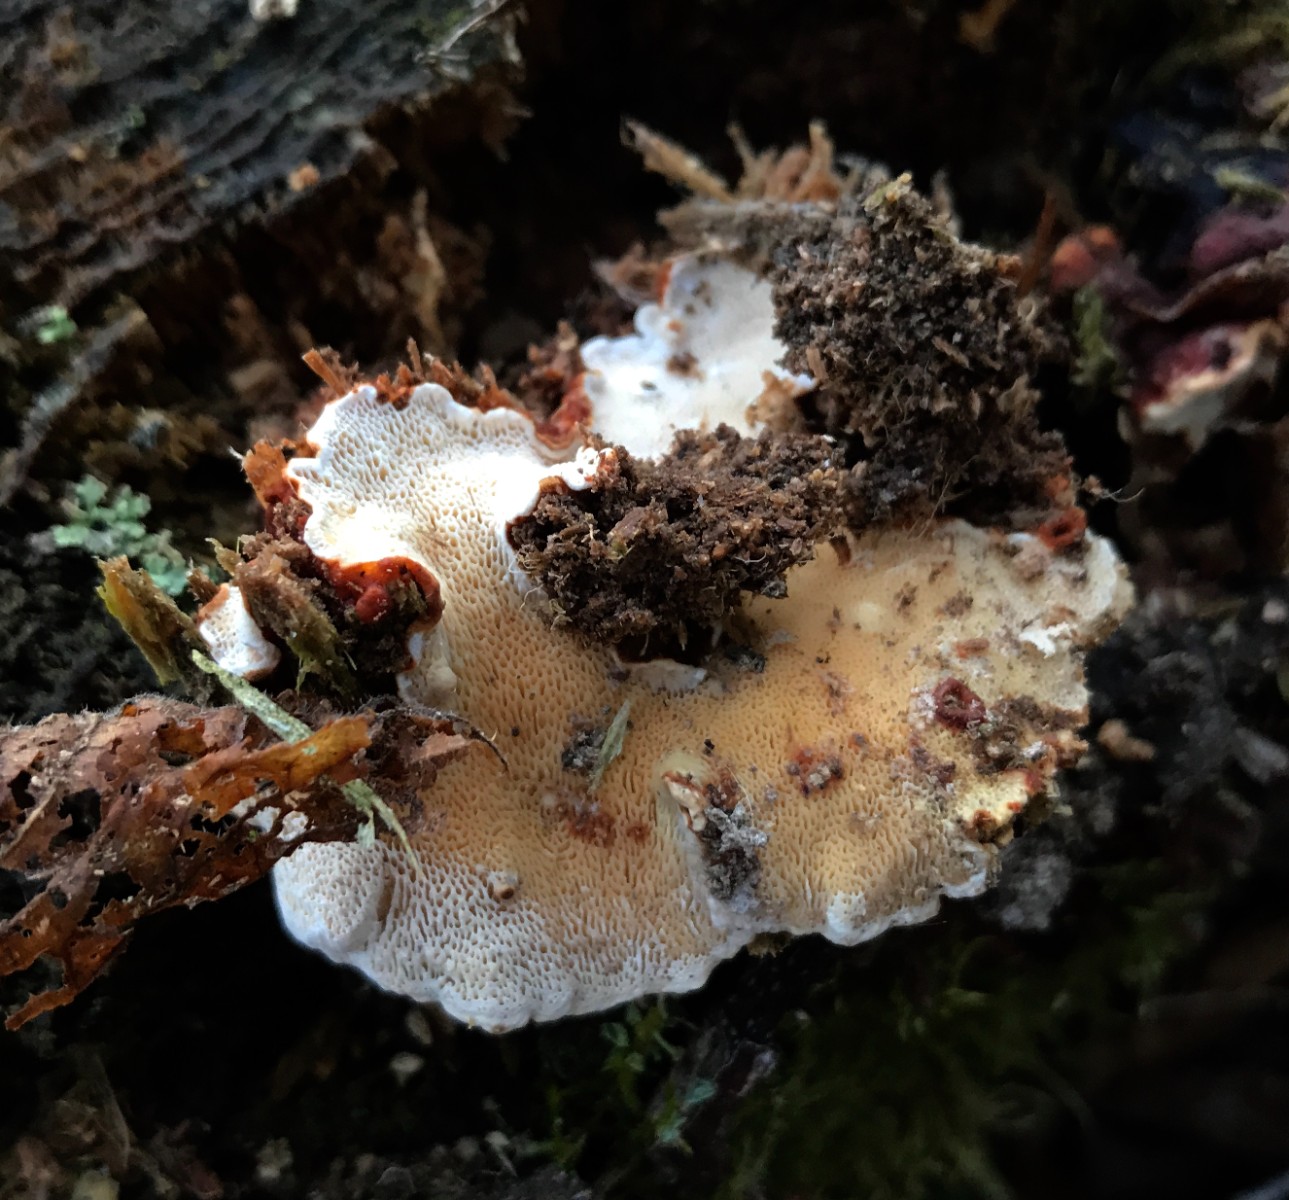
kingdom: Fungi
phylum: Basidiomycota
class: Agaricomycetes
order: Russulales
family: Bondarzewiaceae
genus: Heterobasidion
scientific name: Heterobasidion annosum
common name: almindelig rodfordærver
